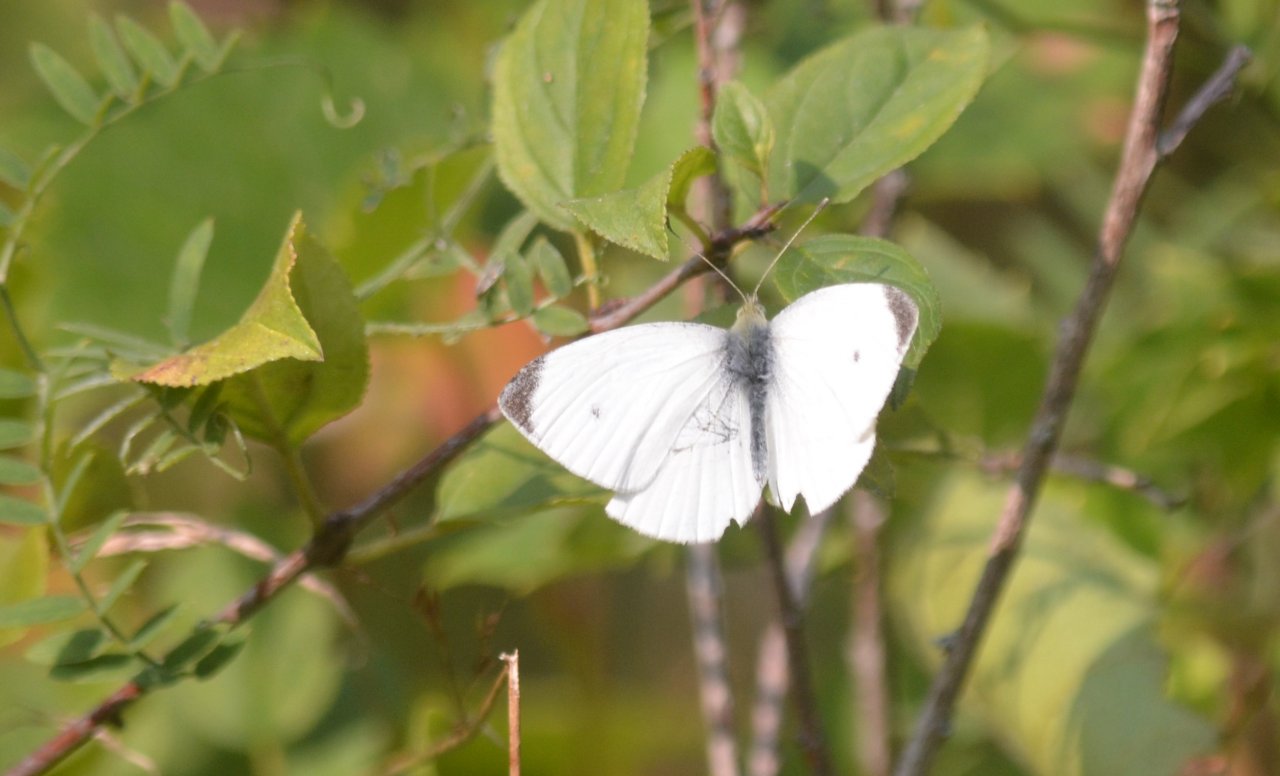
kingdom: Animalia
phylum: Arthropoda
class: Insecta
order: Lepidoptera
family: Pieridae
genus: Pieris
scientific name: Pieris rapae
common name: Cabbage White
